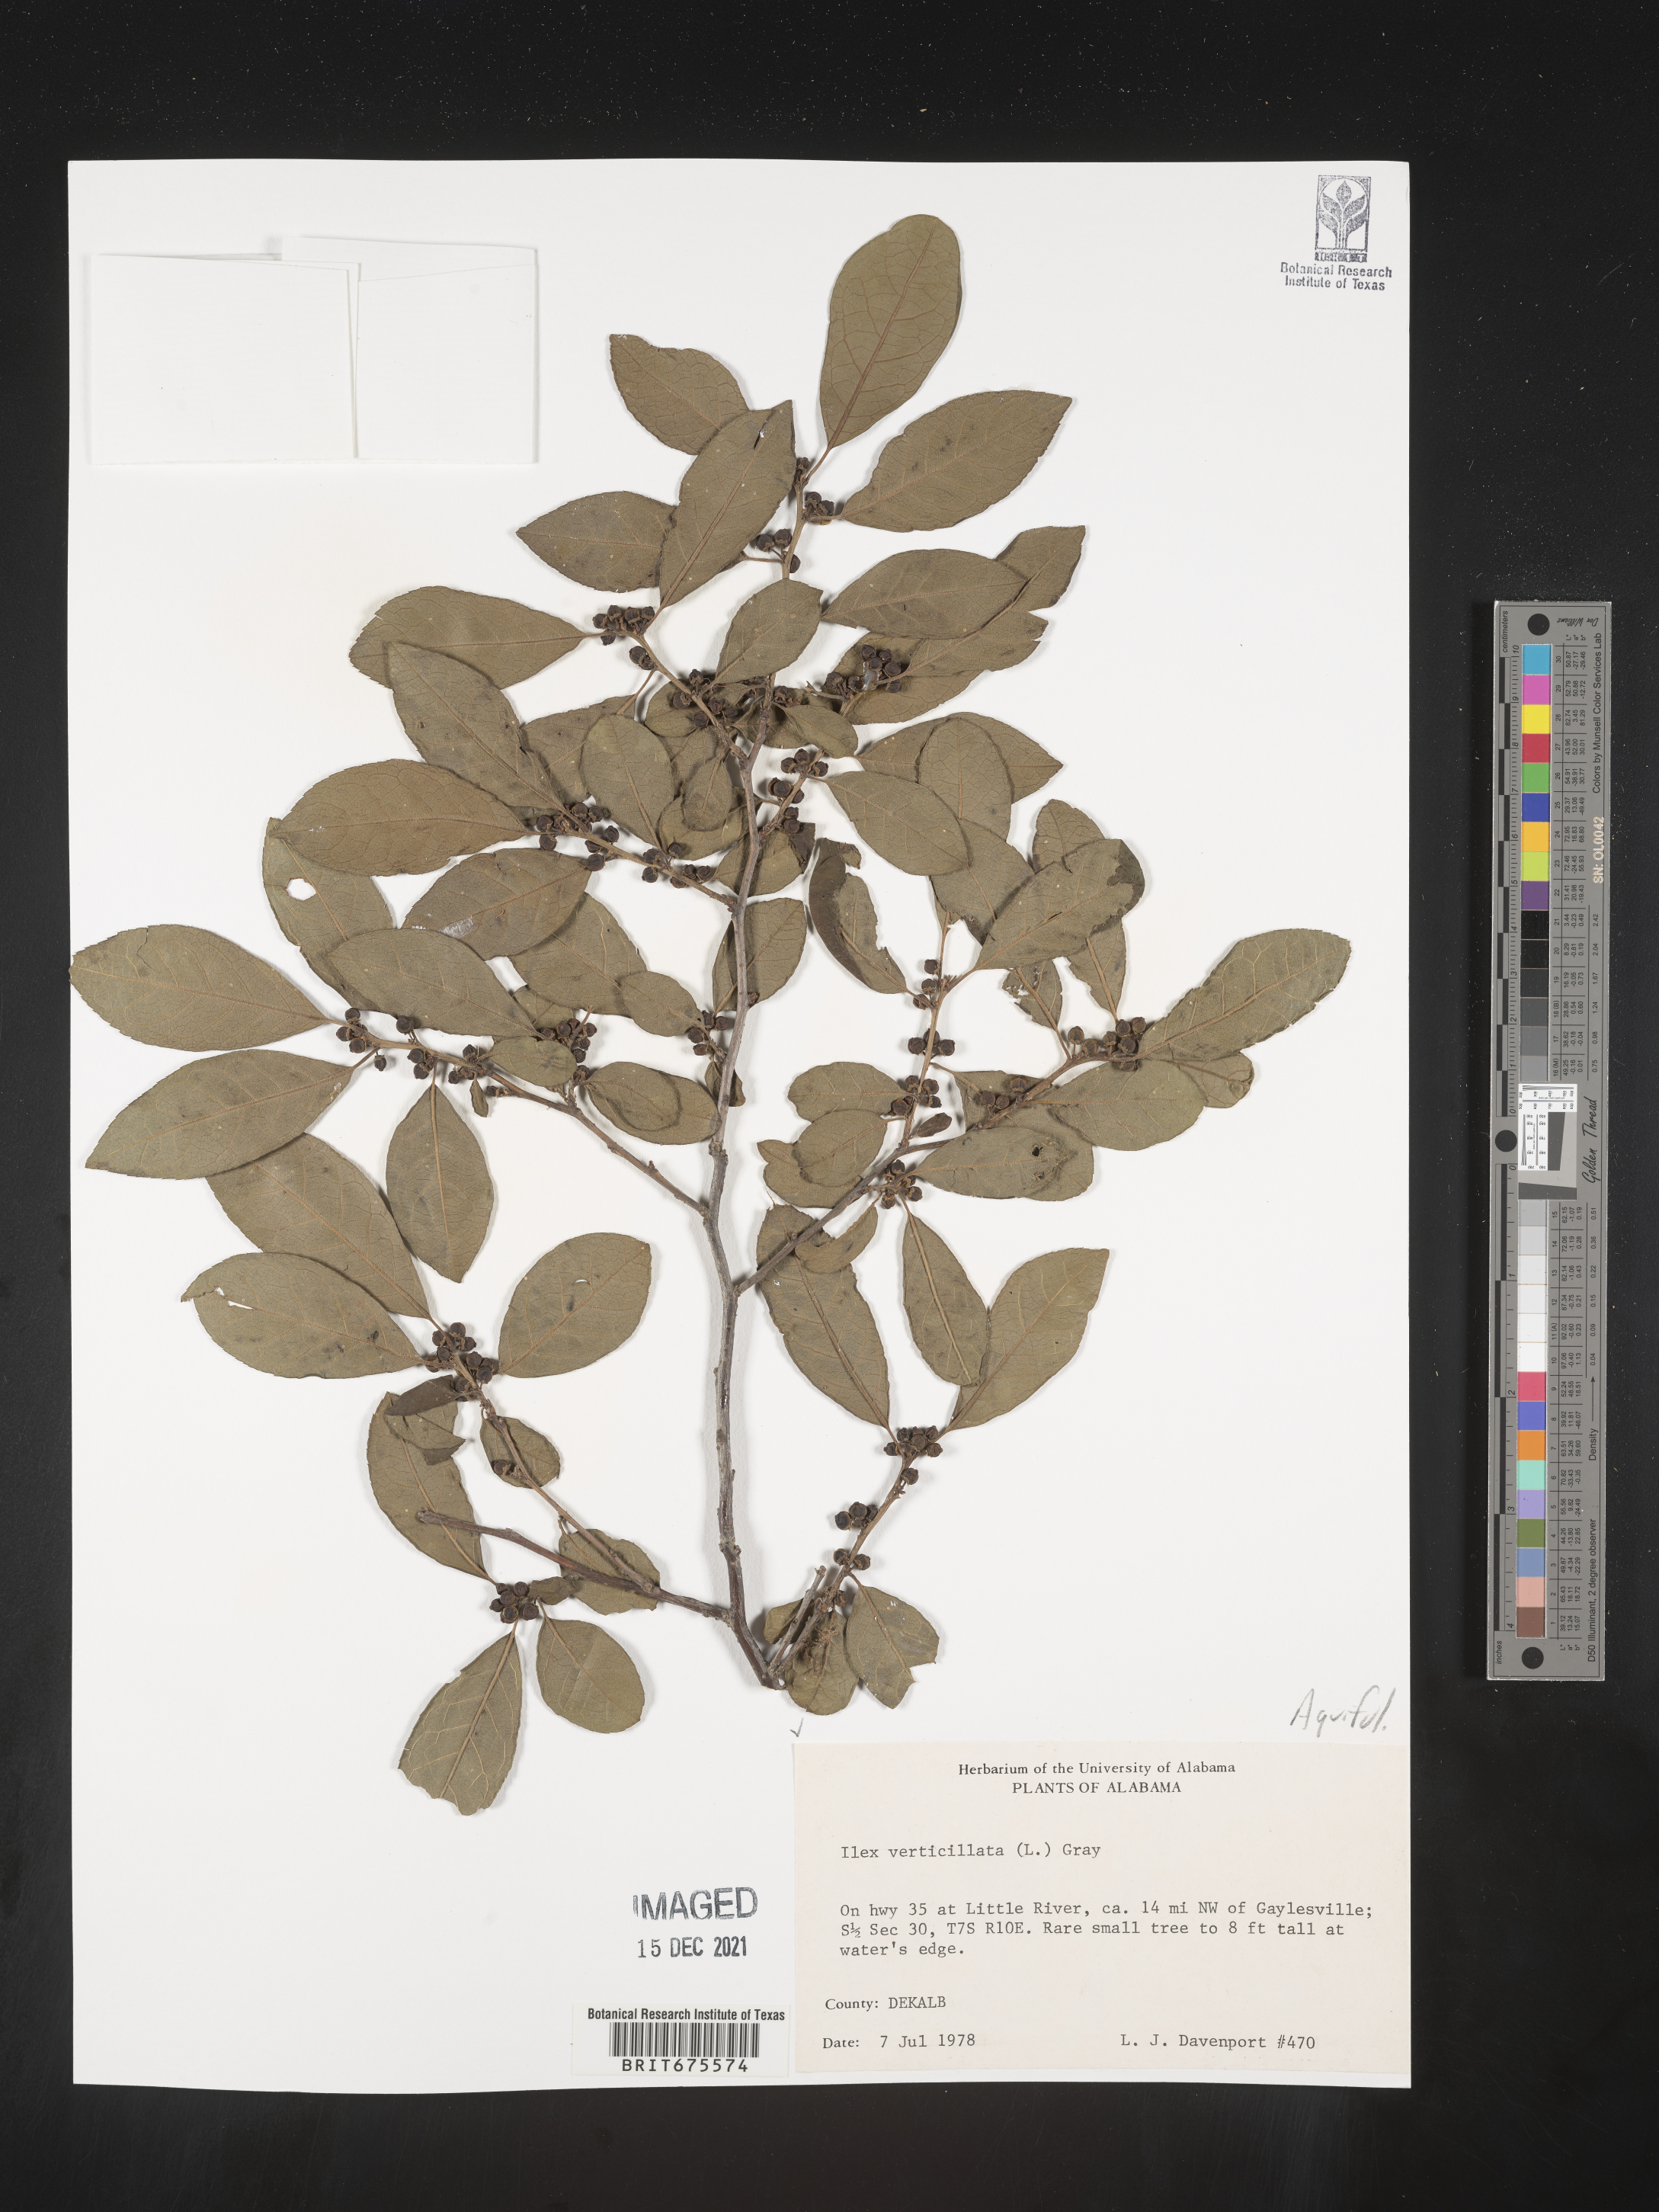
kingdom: Plantae
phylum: Tracheophyta
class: Magnoliopsida
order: Aquifoliales
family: Aquifoliaceae
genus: Ilex
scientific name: Ilex verticillata
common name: Virginia winterberry
